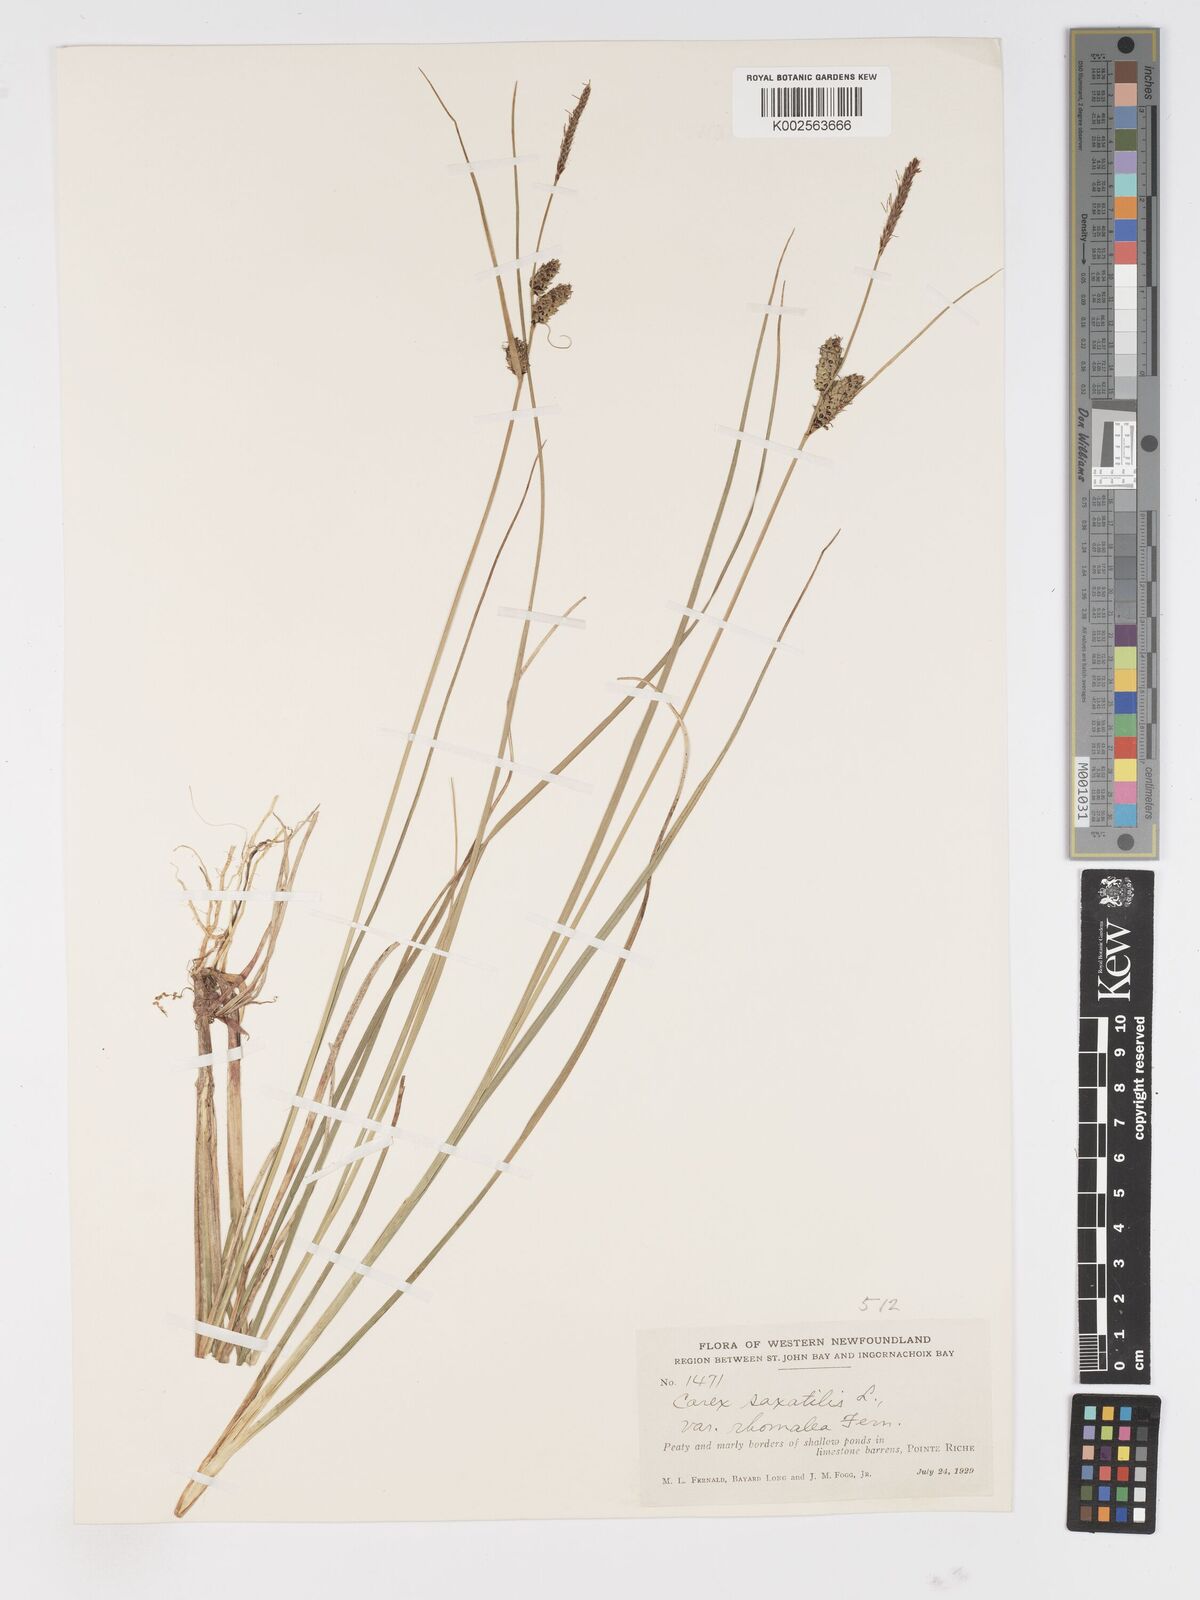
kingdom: Plantae
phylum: Tracheophyta
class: Liliopsida
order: Poales
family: Cyperaceae
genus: Carex
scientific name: Carex saxatilis
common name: Russet sedge
